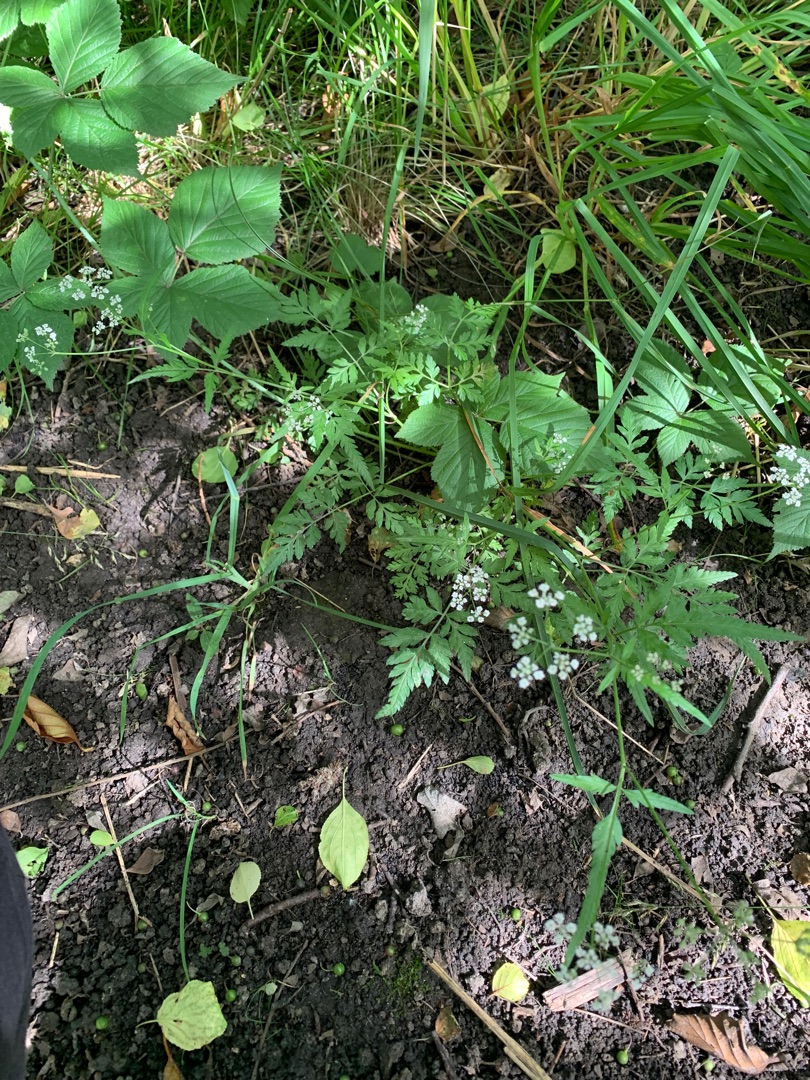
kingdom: Plantae
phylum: Tracheophyta
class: Magnoliopsida
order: Apiales
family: Apiaceae
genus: Torilis
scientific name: Torilis japonica
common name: Hvas randfrø
